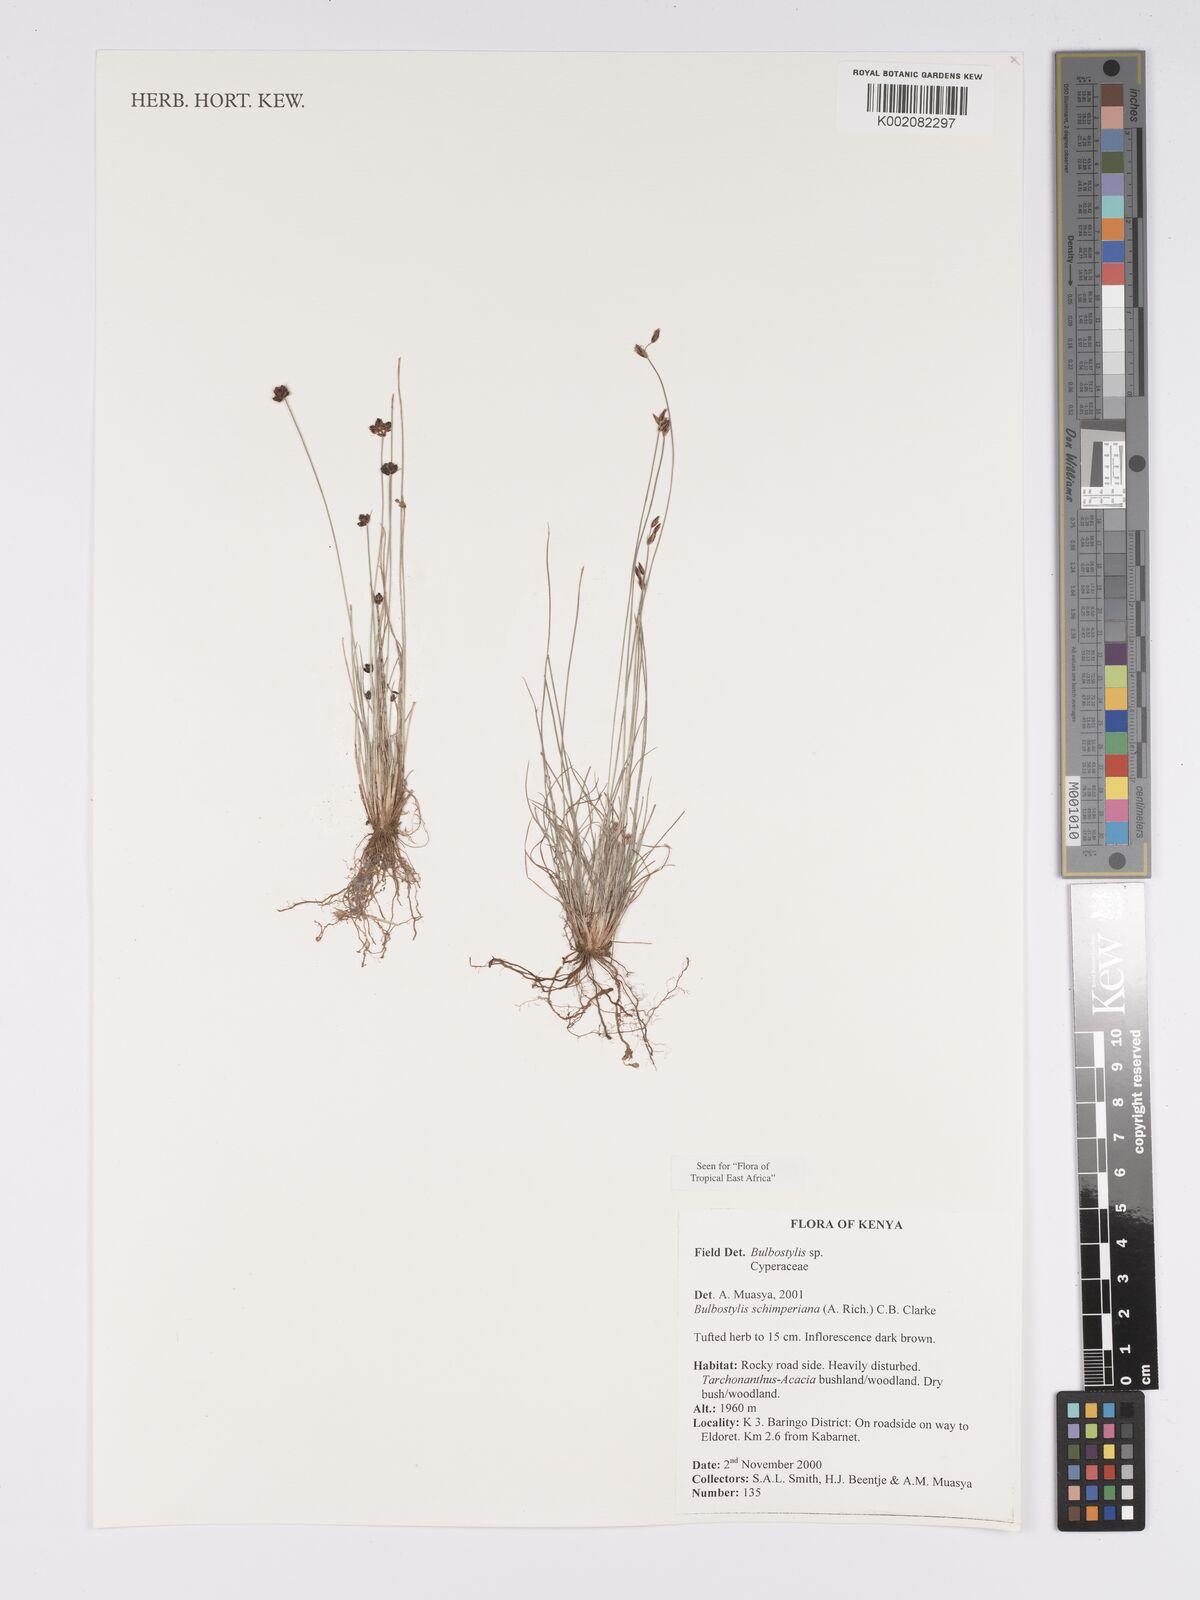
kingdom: Plantae
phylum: Tracheophyta
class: Liliopsida
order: Poales
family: Cyperaceae
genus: Bulbostylis
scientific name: Bulbostylis schimperiana
